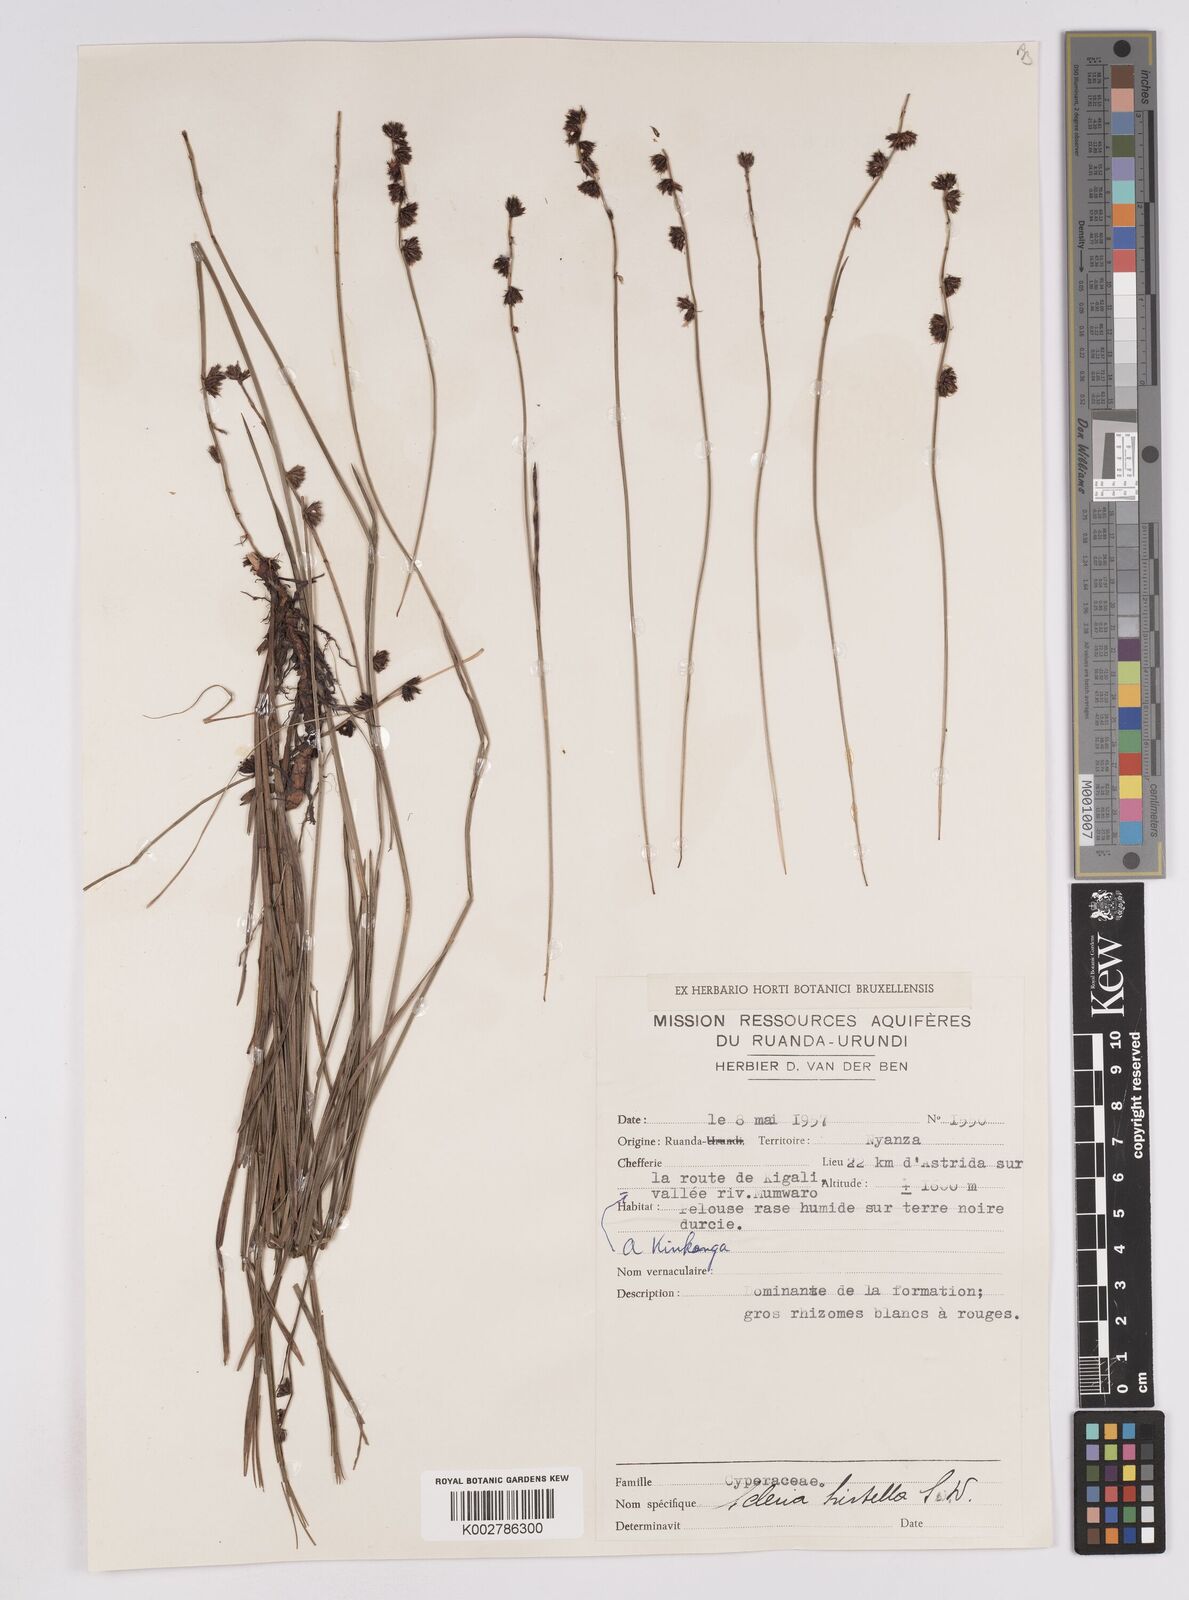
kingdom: Plantae
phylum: Tracheophyta
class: Liliopsida
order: Poales
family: Cyperaceae
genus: Scleria
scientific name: Scleria brownii
